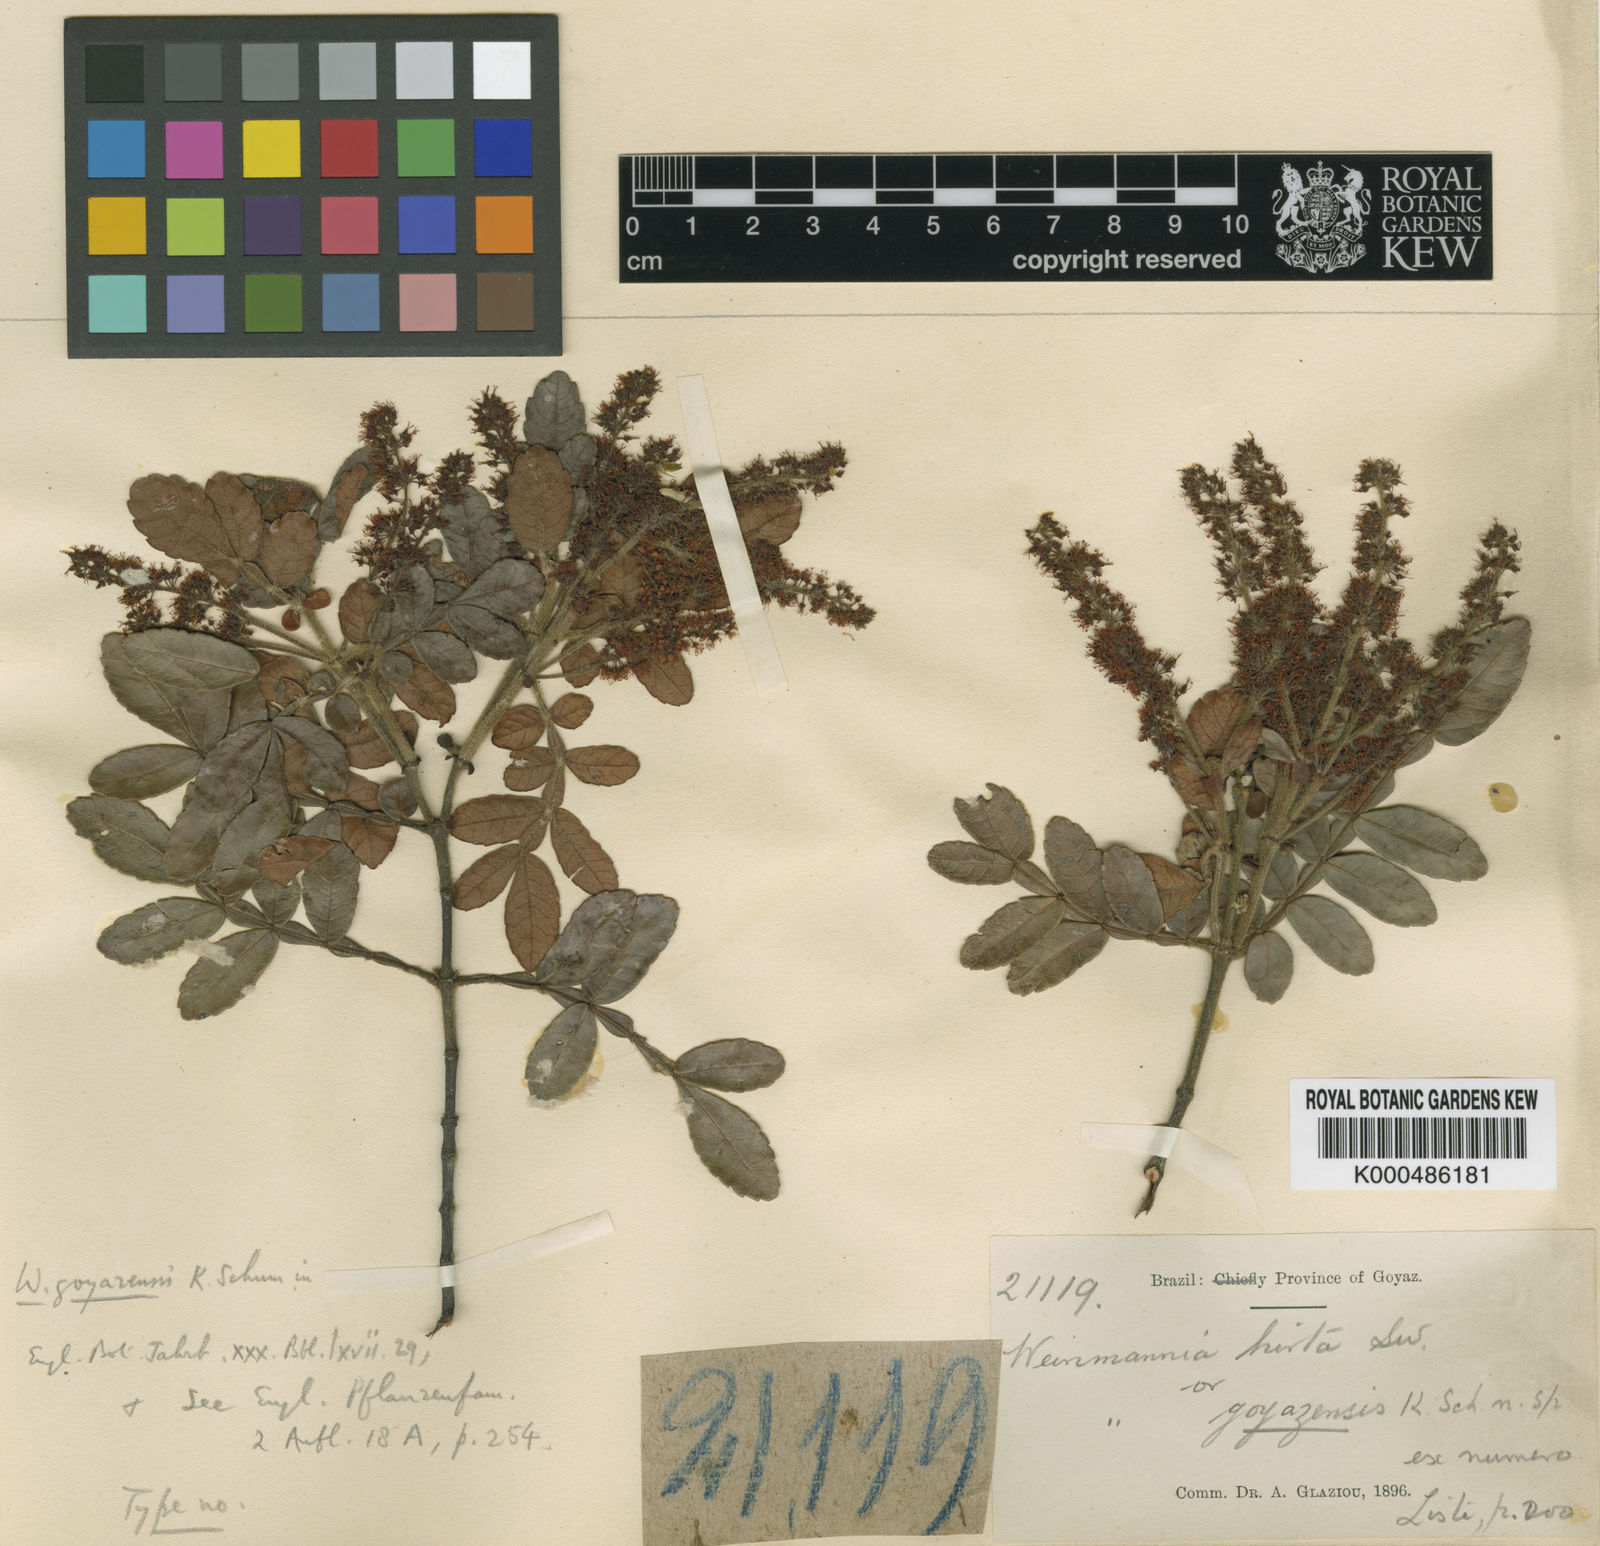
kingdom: Plantae
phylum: Tracheophyta
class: Magnoliopsida
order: Oxalidales
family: Cunoniaceae
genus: Weinmannia
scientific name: Weinmannia subsessiliflora
